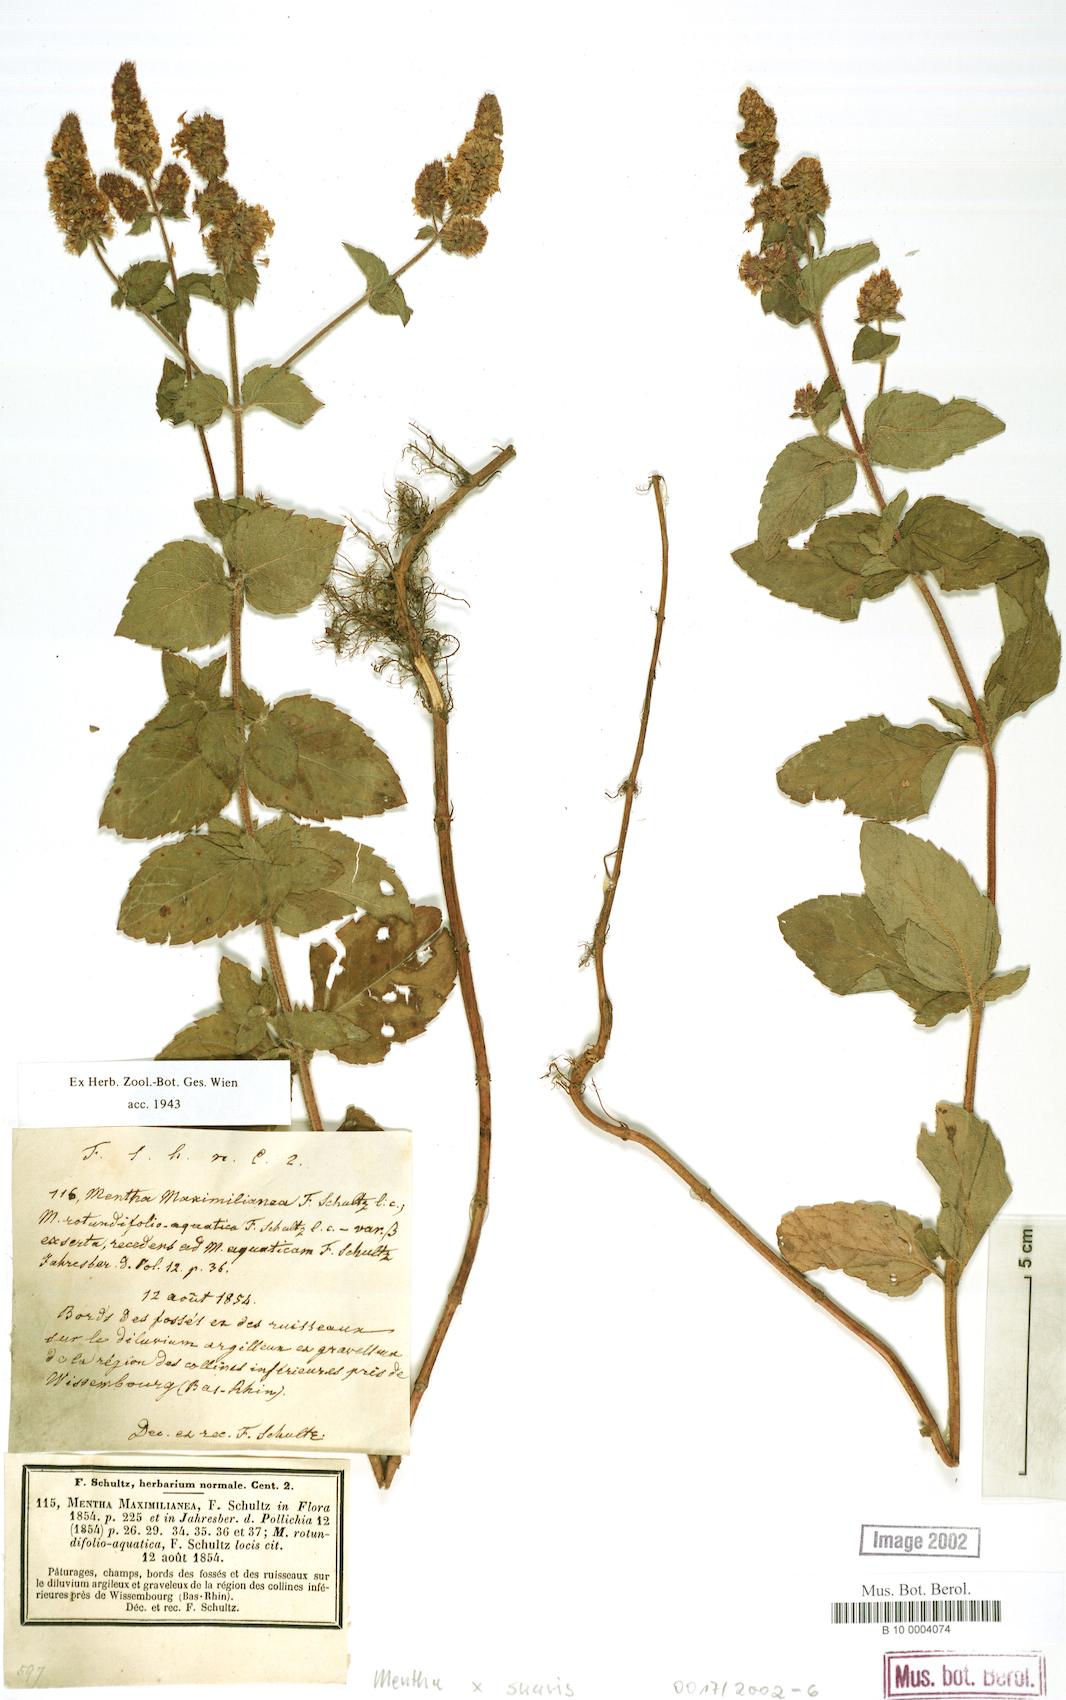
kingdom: Plantae
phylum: Tracheophyta
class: Magnoliopsida
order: Lamiales
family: Lamiaceae
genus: Mentha
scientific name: Mentha suavis
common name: Sweet mint
